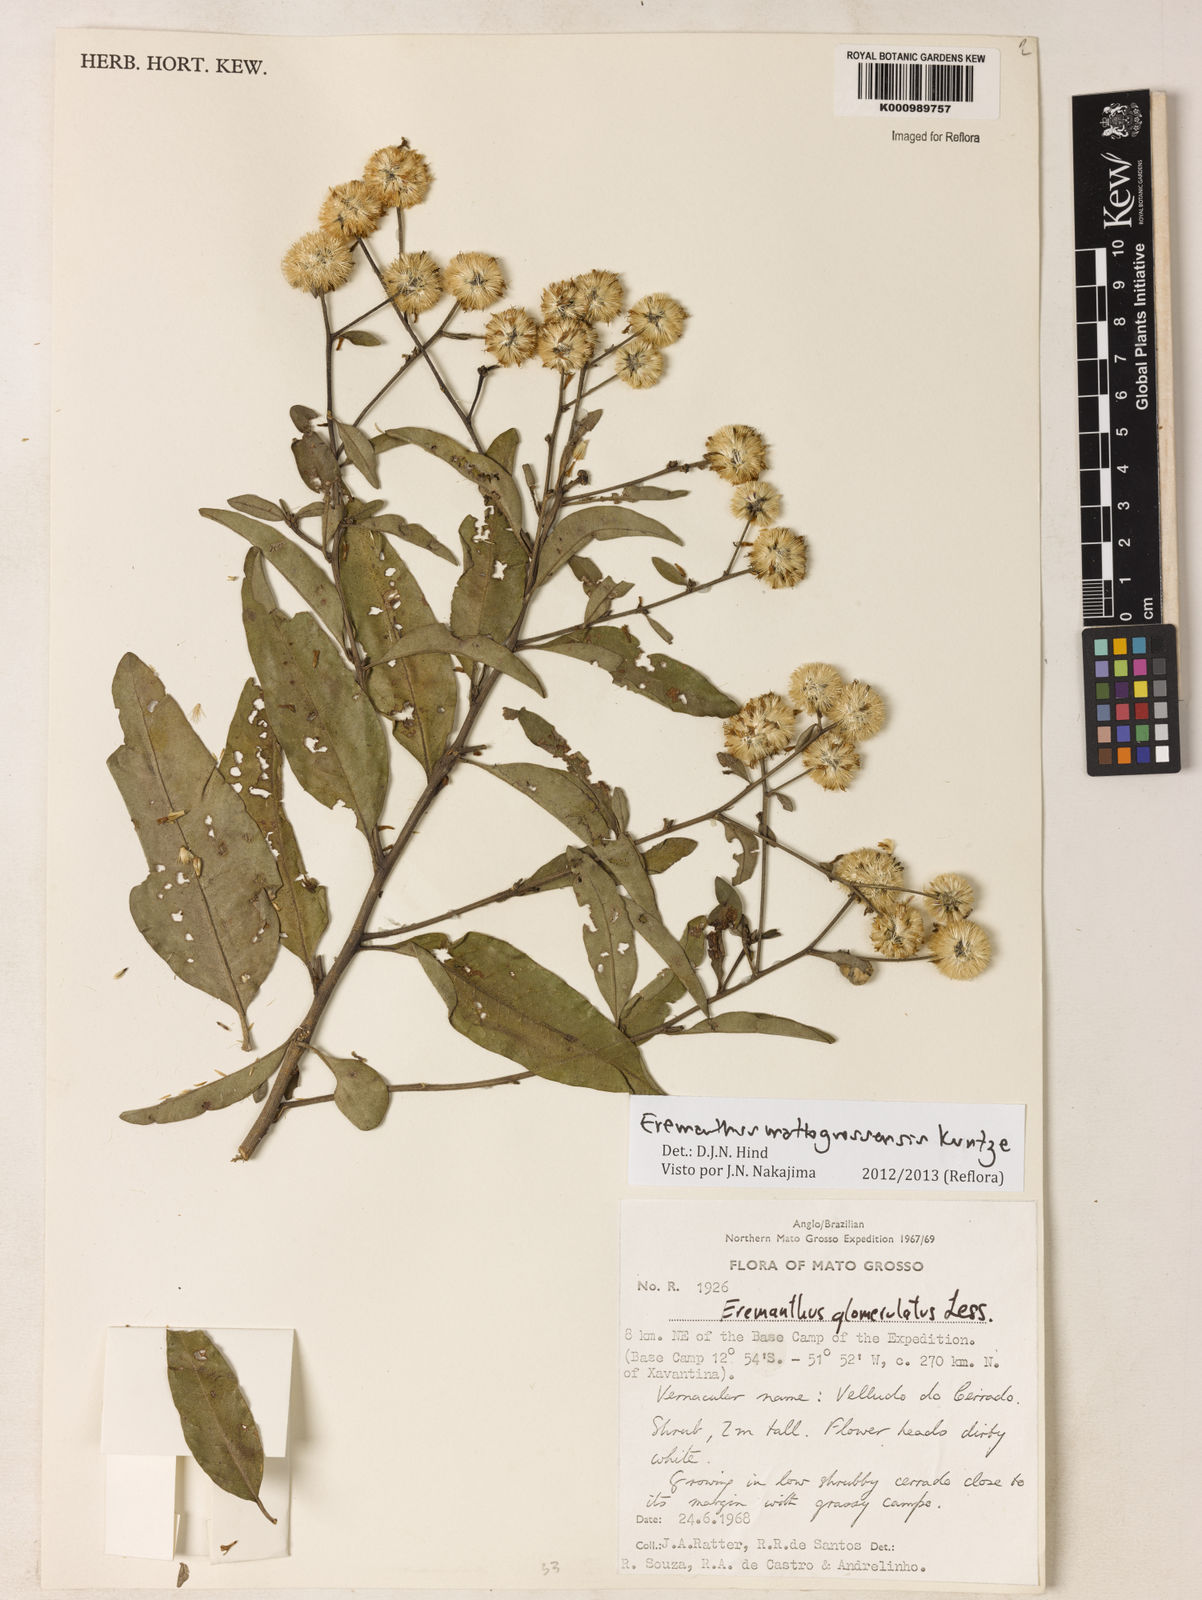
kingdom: Plantae
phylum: Tracheophyta
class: Magnoliopsida
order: Asterales
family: Asteraceae
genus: Eremanthus
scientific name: Eremanthus mattogrossensis
